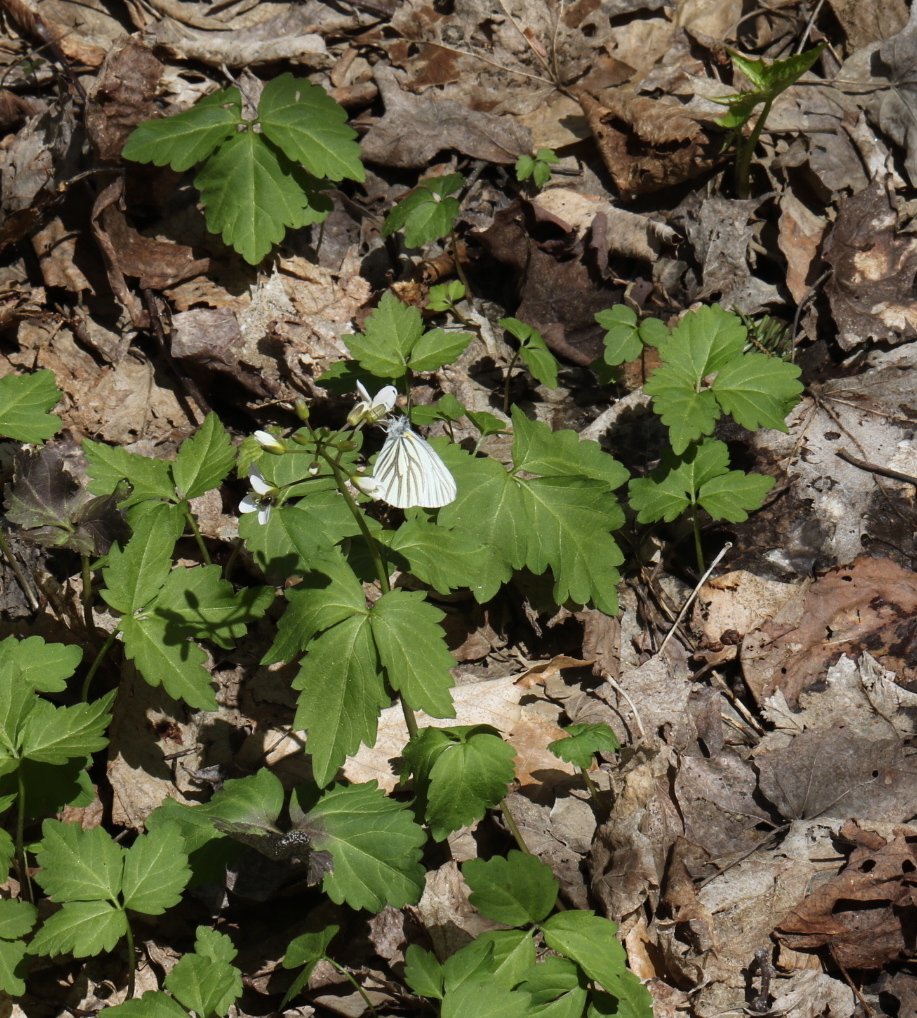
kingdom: Animalia
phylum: Arthropoda
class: Insecta
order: Lepidoptera
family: Pieridae
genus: Pieris
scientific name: Pieris oleracea
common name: Mustard White
